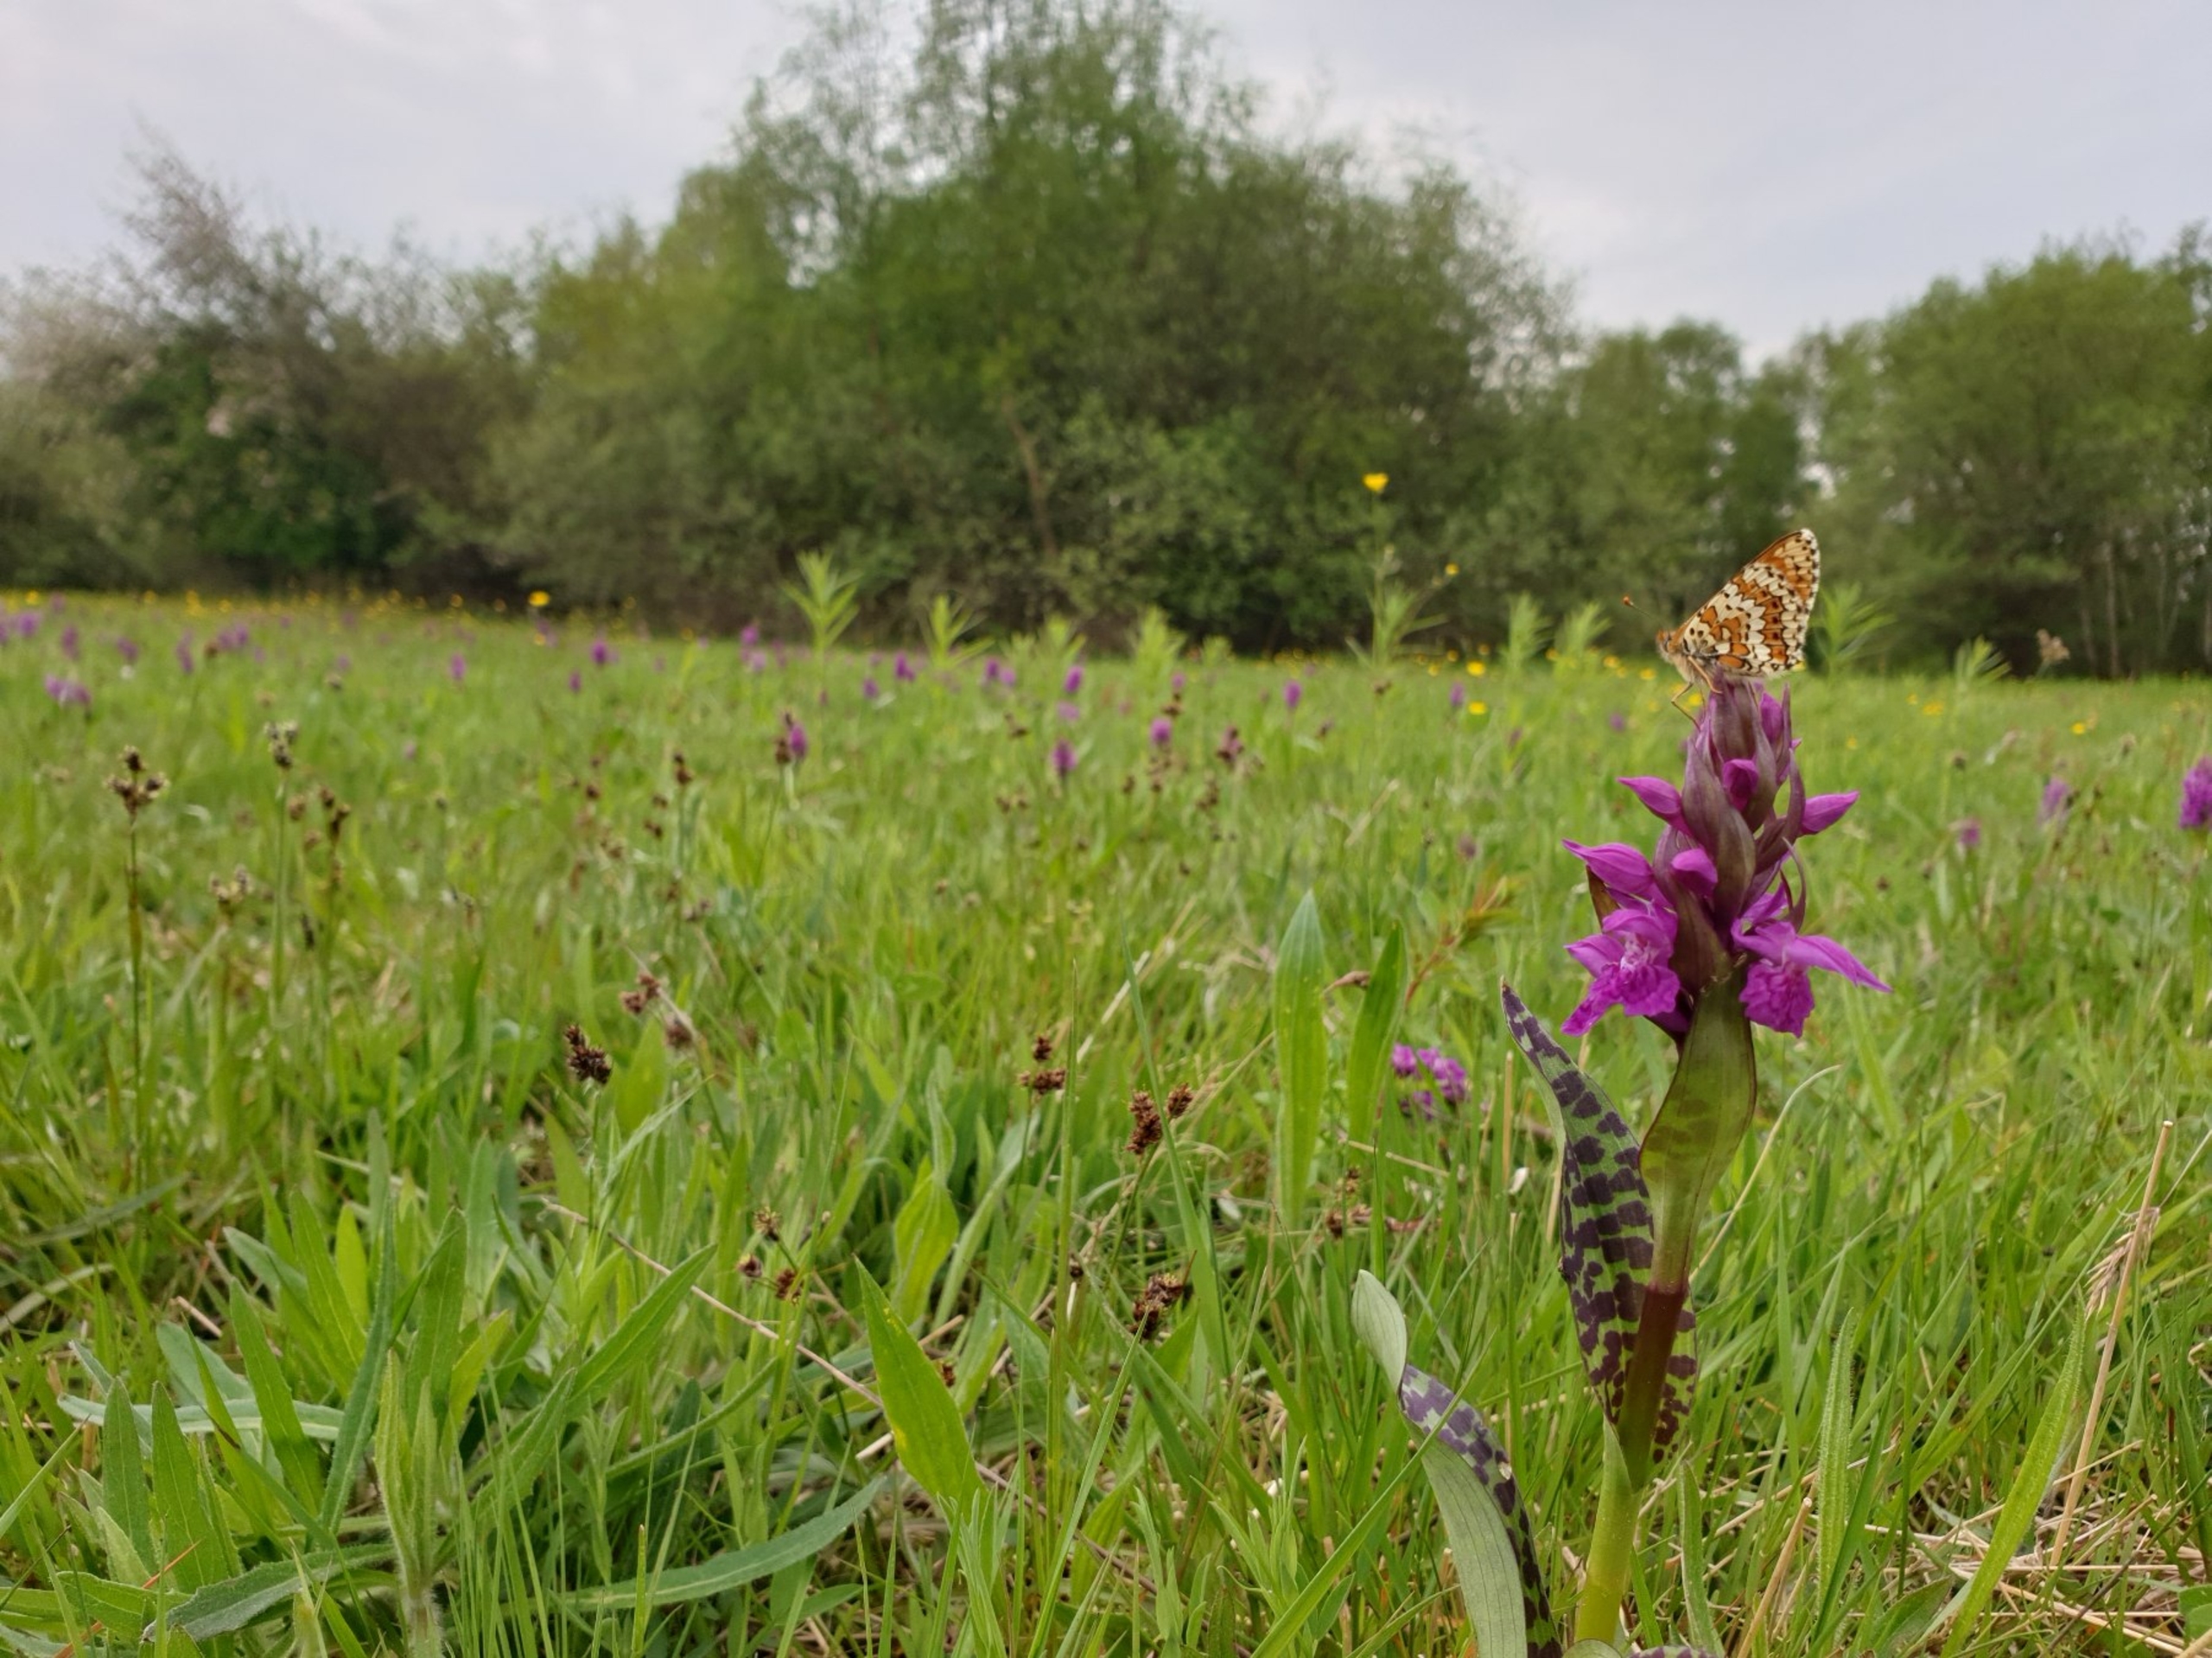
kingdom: Animalia
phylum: Arthropoda
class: Insecta
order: Lepidoptera
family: Nymphalidae
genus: Melitaea
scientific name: Melitaea cinxia
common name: Okkergul pletvinge
